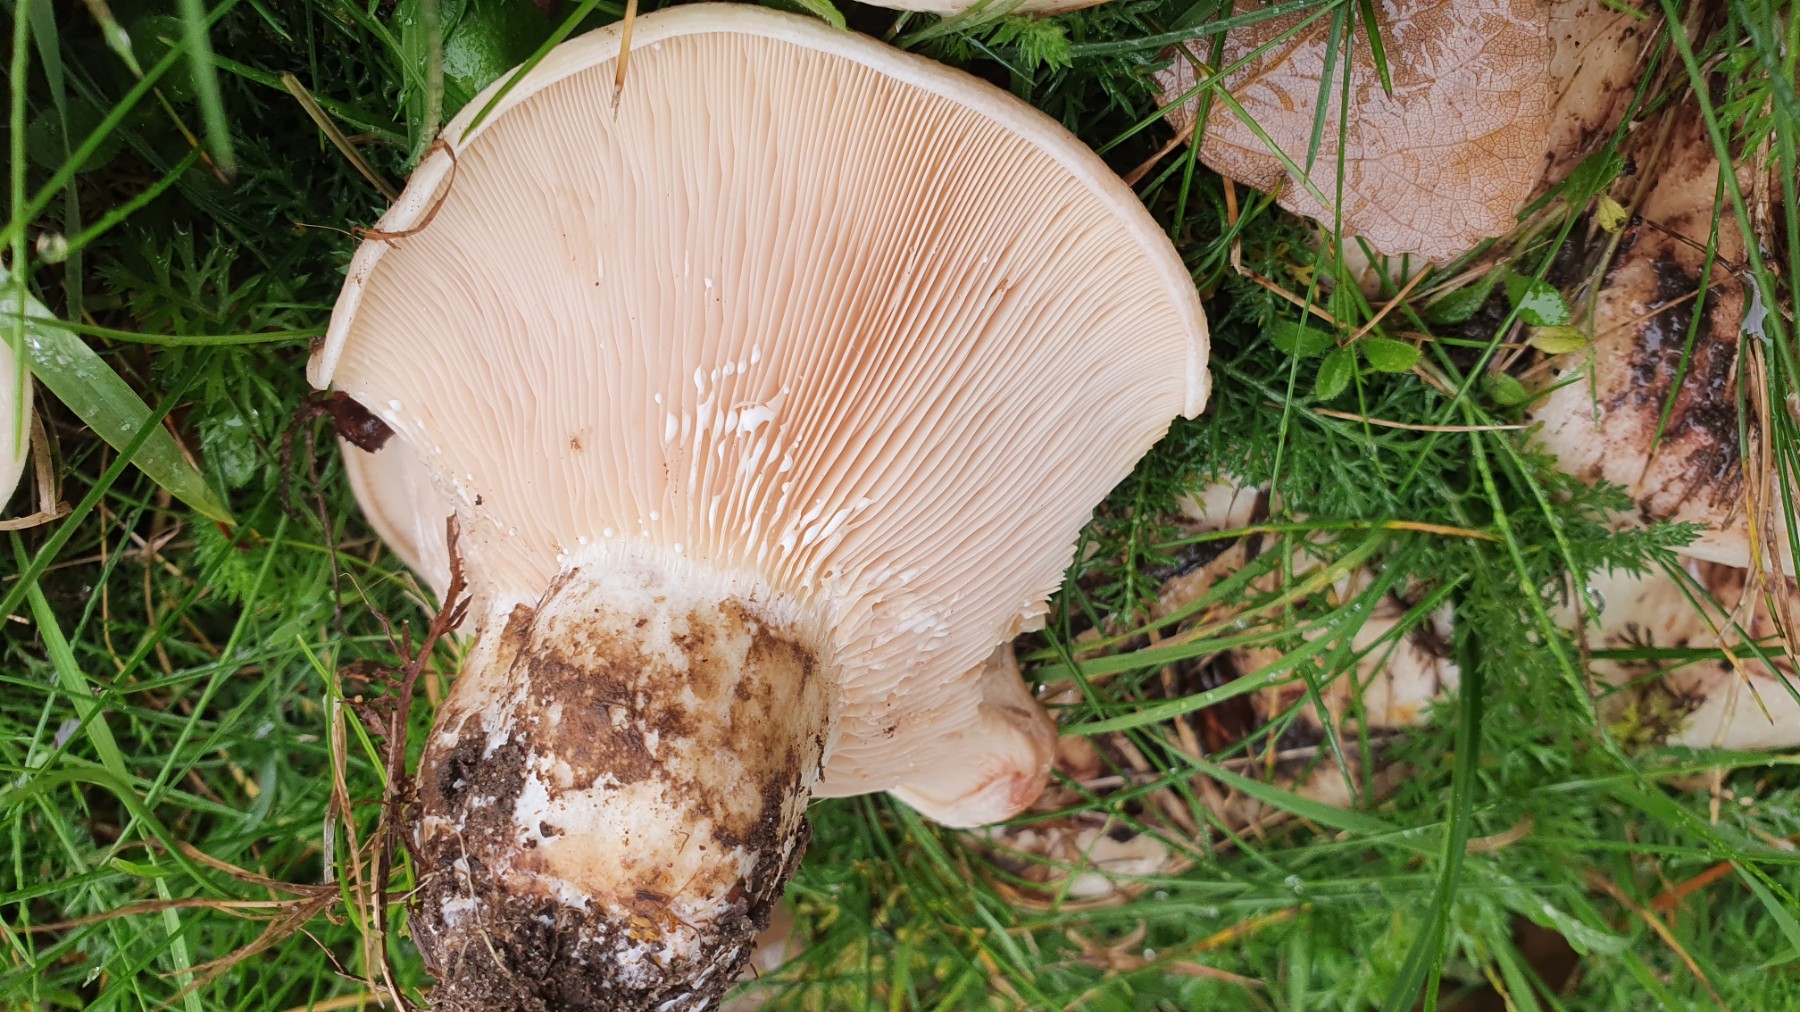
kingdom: Fungi
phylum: Basidiomycota
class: Agaricomycetes
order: Russulales
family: Russulaceae
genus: Lactarius
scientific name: Lactarius controversus
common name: rosabladet mælkehat
